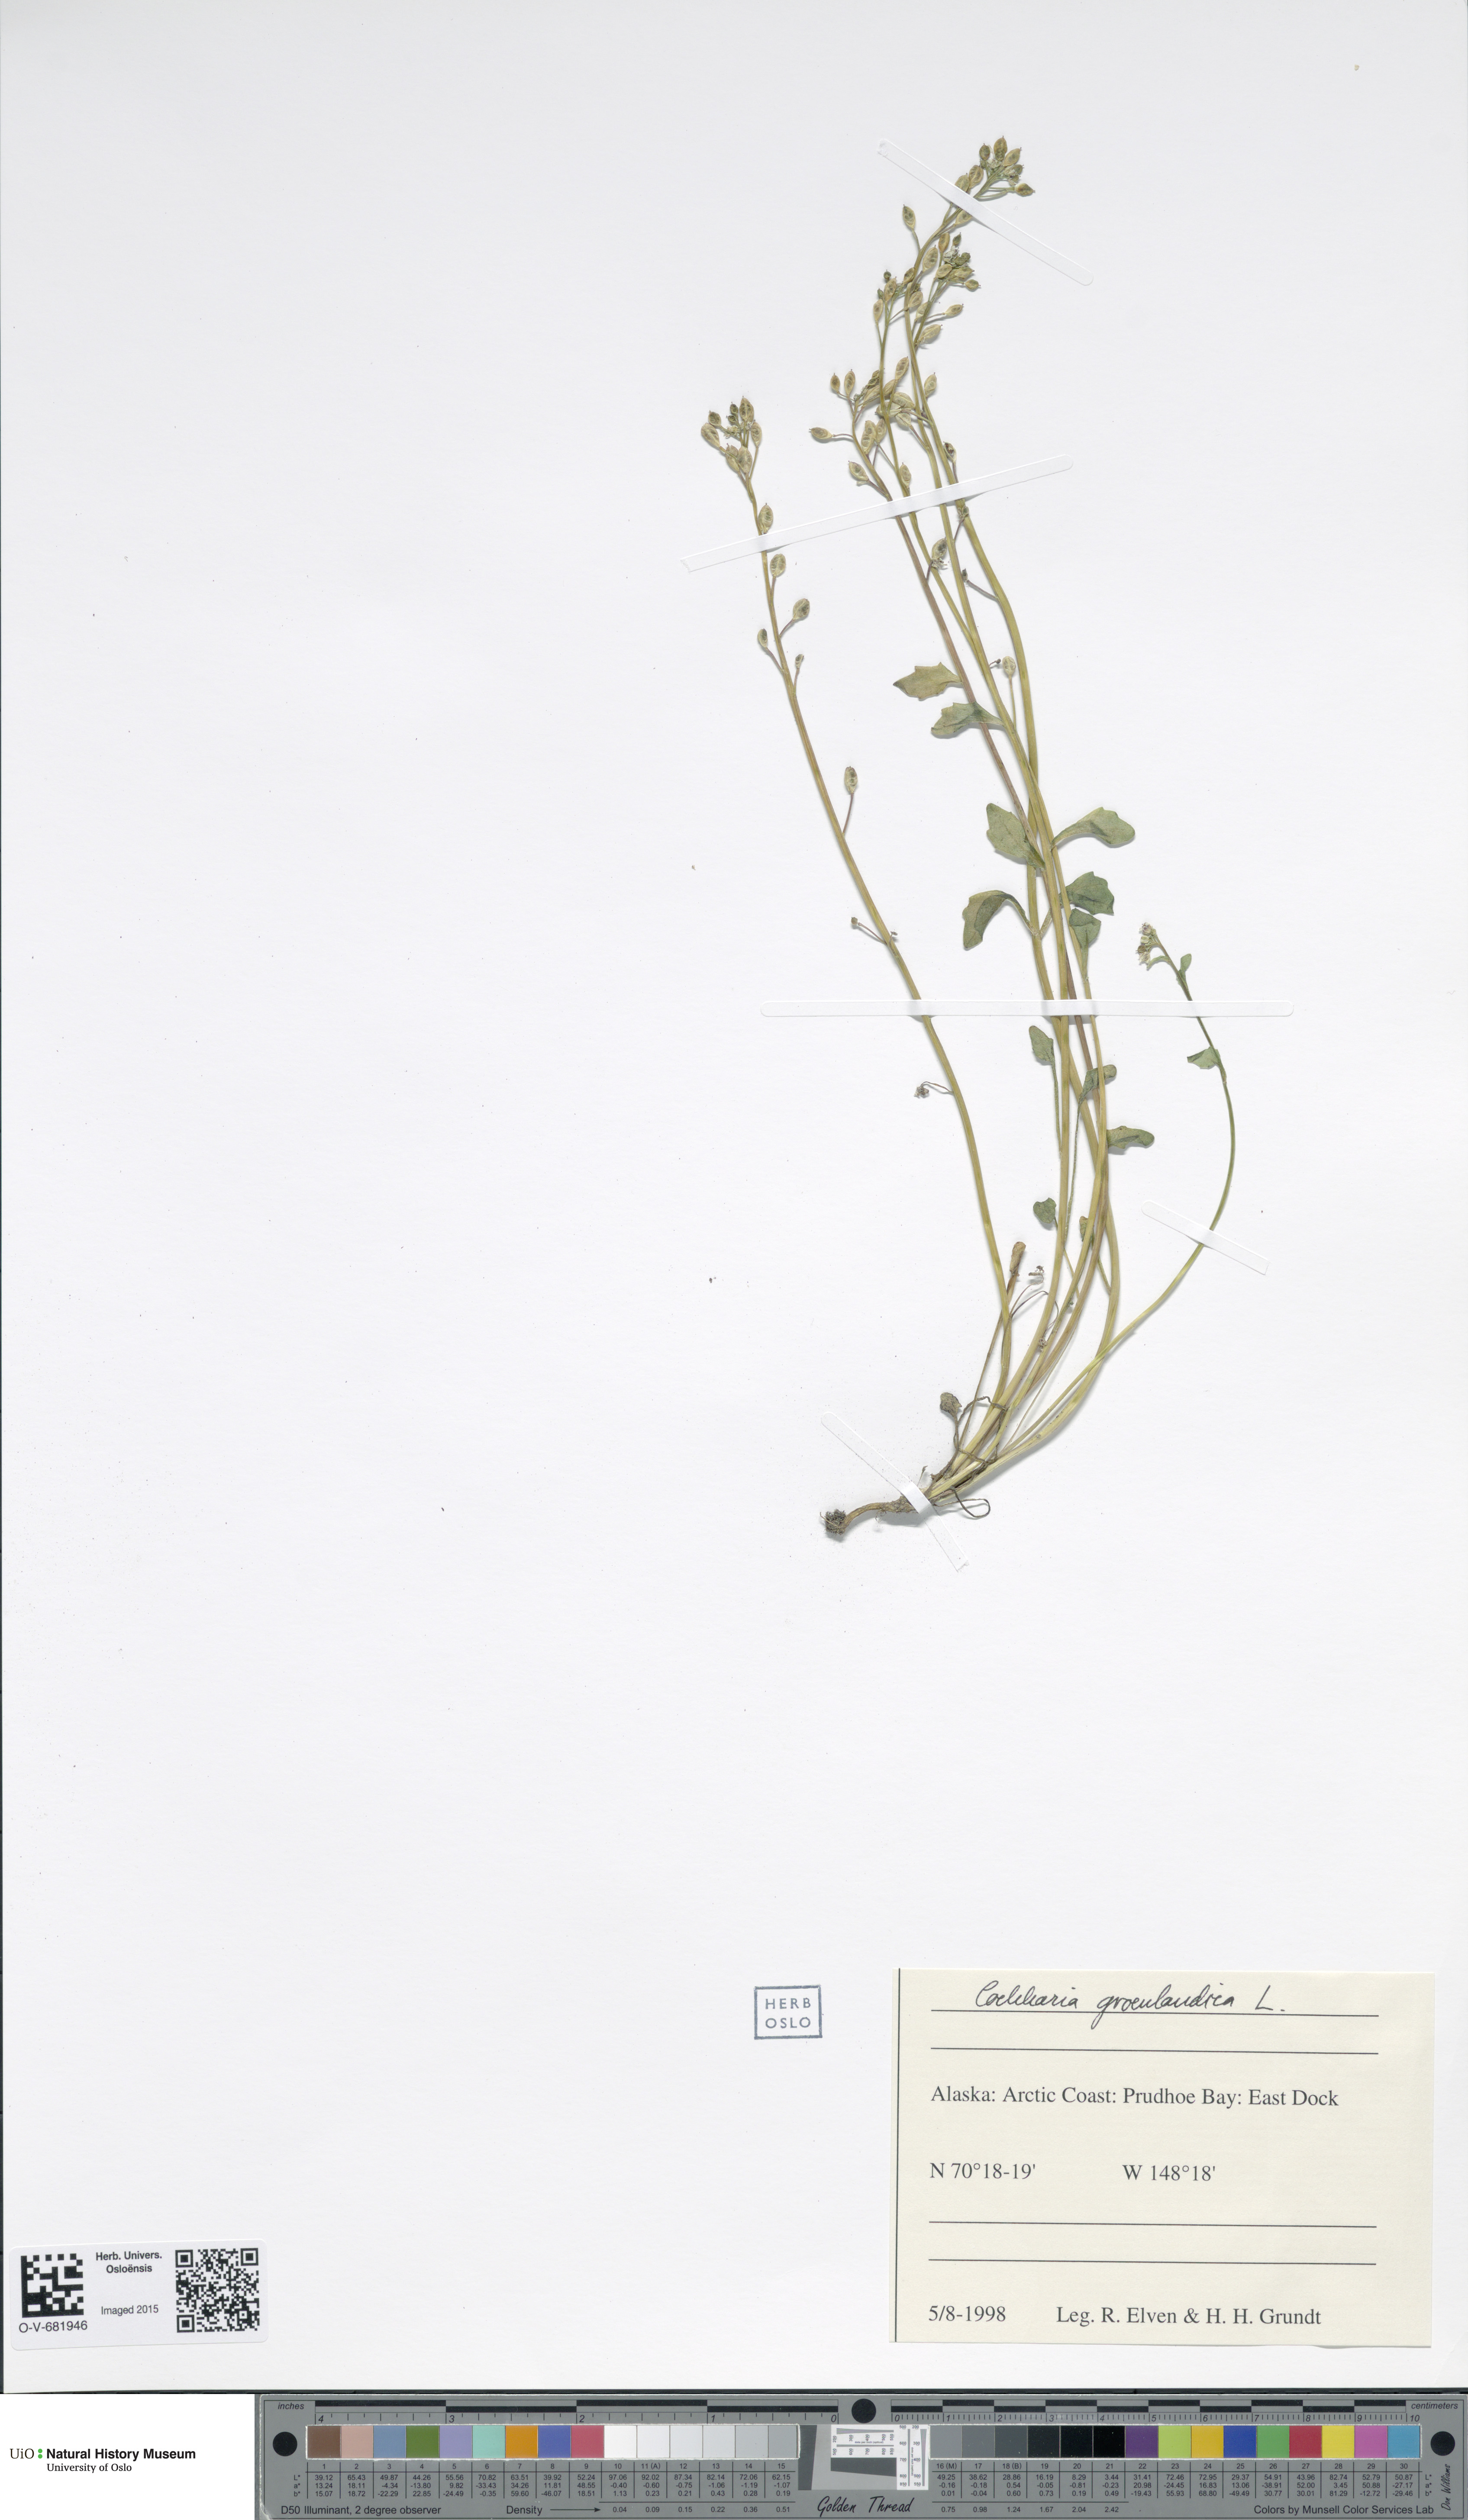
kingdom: Plantae
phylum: Tracheophyta
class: Magnoliopsida
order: Brassicales
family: Brassicaceae
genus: Cochlearia
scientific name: Cochlearia groenlandica
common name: Danish scurvygrass
